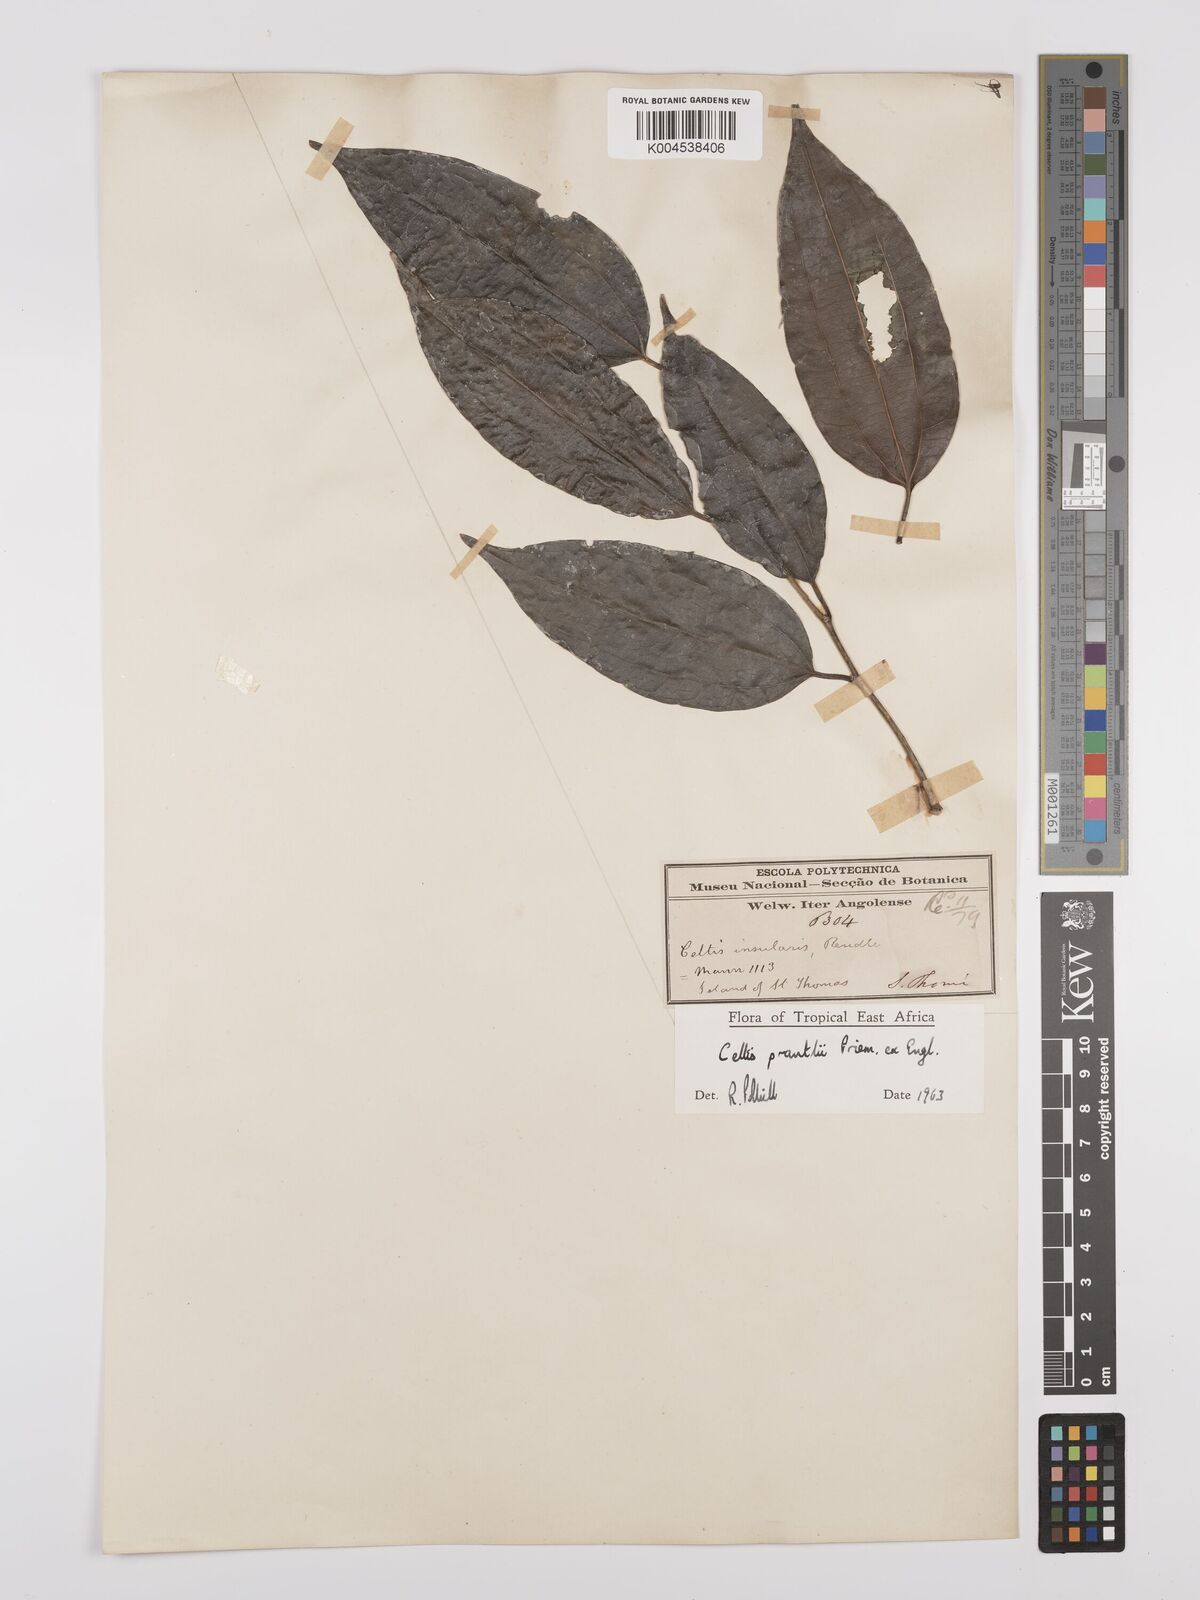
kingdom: Plantae
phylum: Tracheophyta
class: Magnoliopsida
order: Rosales
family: Cannabaceae
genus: Celtis
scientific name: Celtis philippensis
